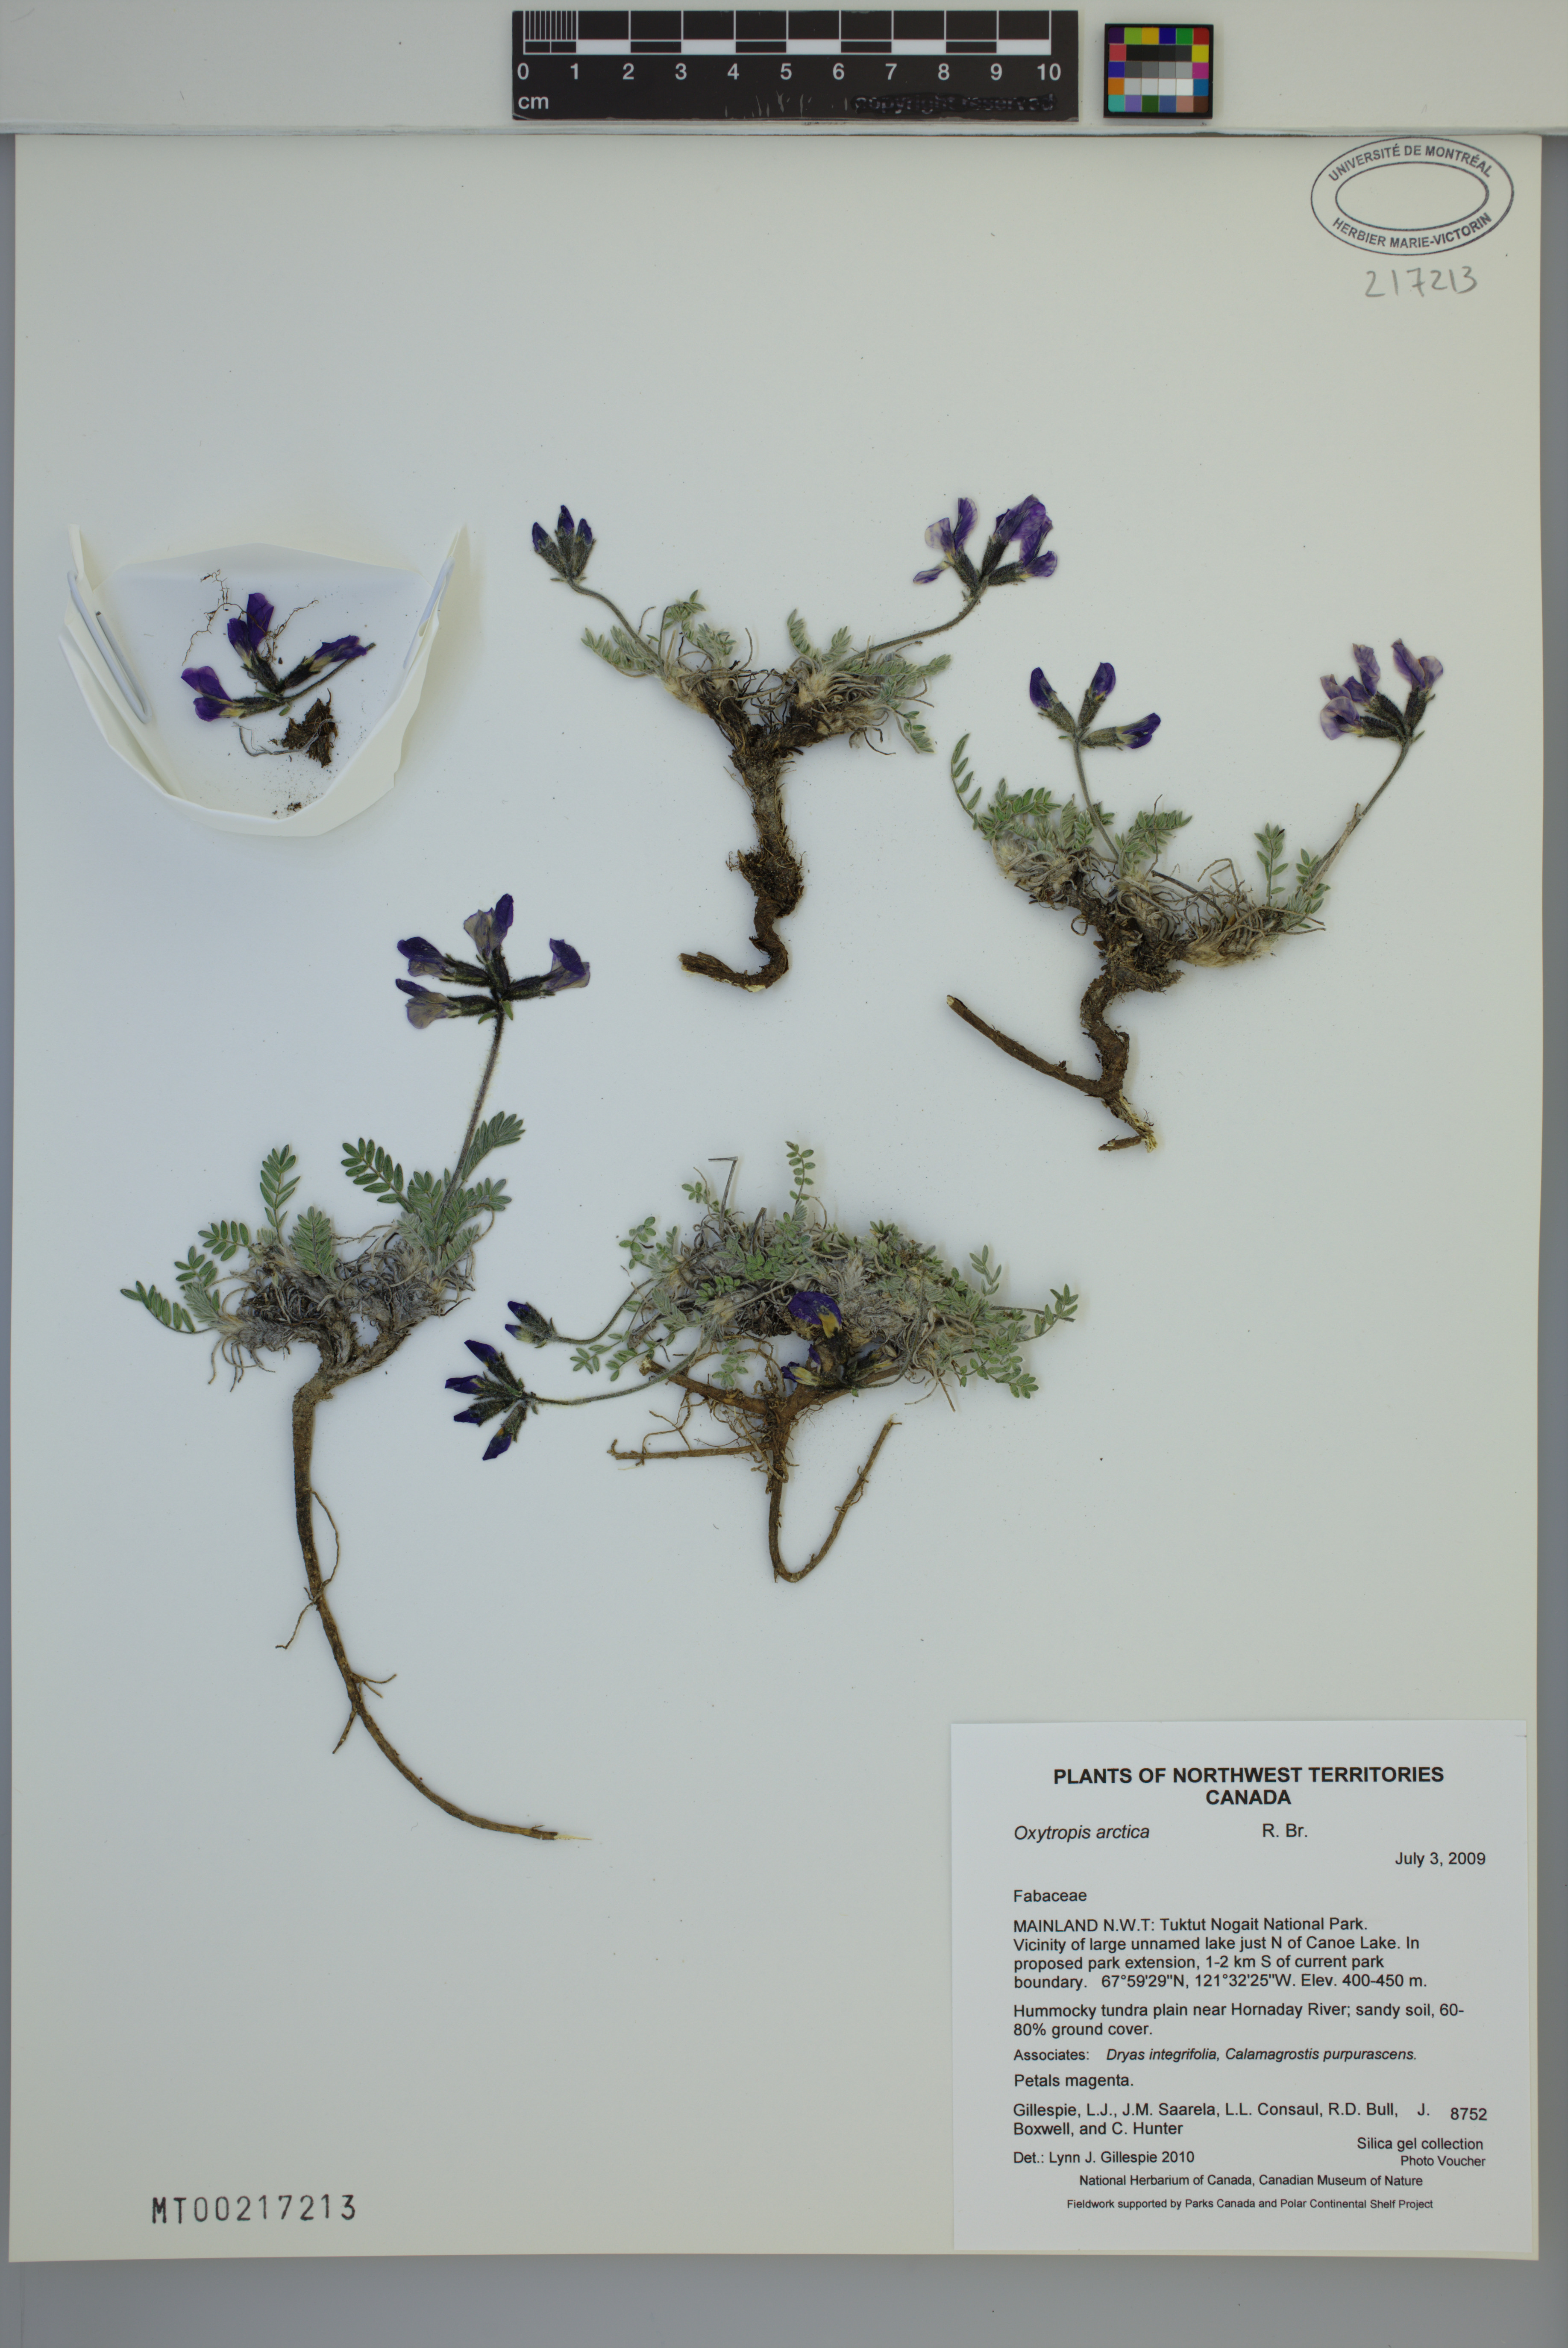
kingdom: Plantae
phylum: Tracheophyta
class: Magnoliopsida
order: Fabales
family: Fabaceae
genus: Oxytropis
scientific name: Oxytropis arctica
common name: Arctic locoweed
